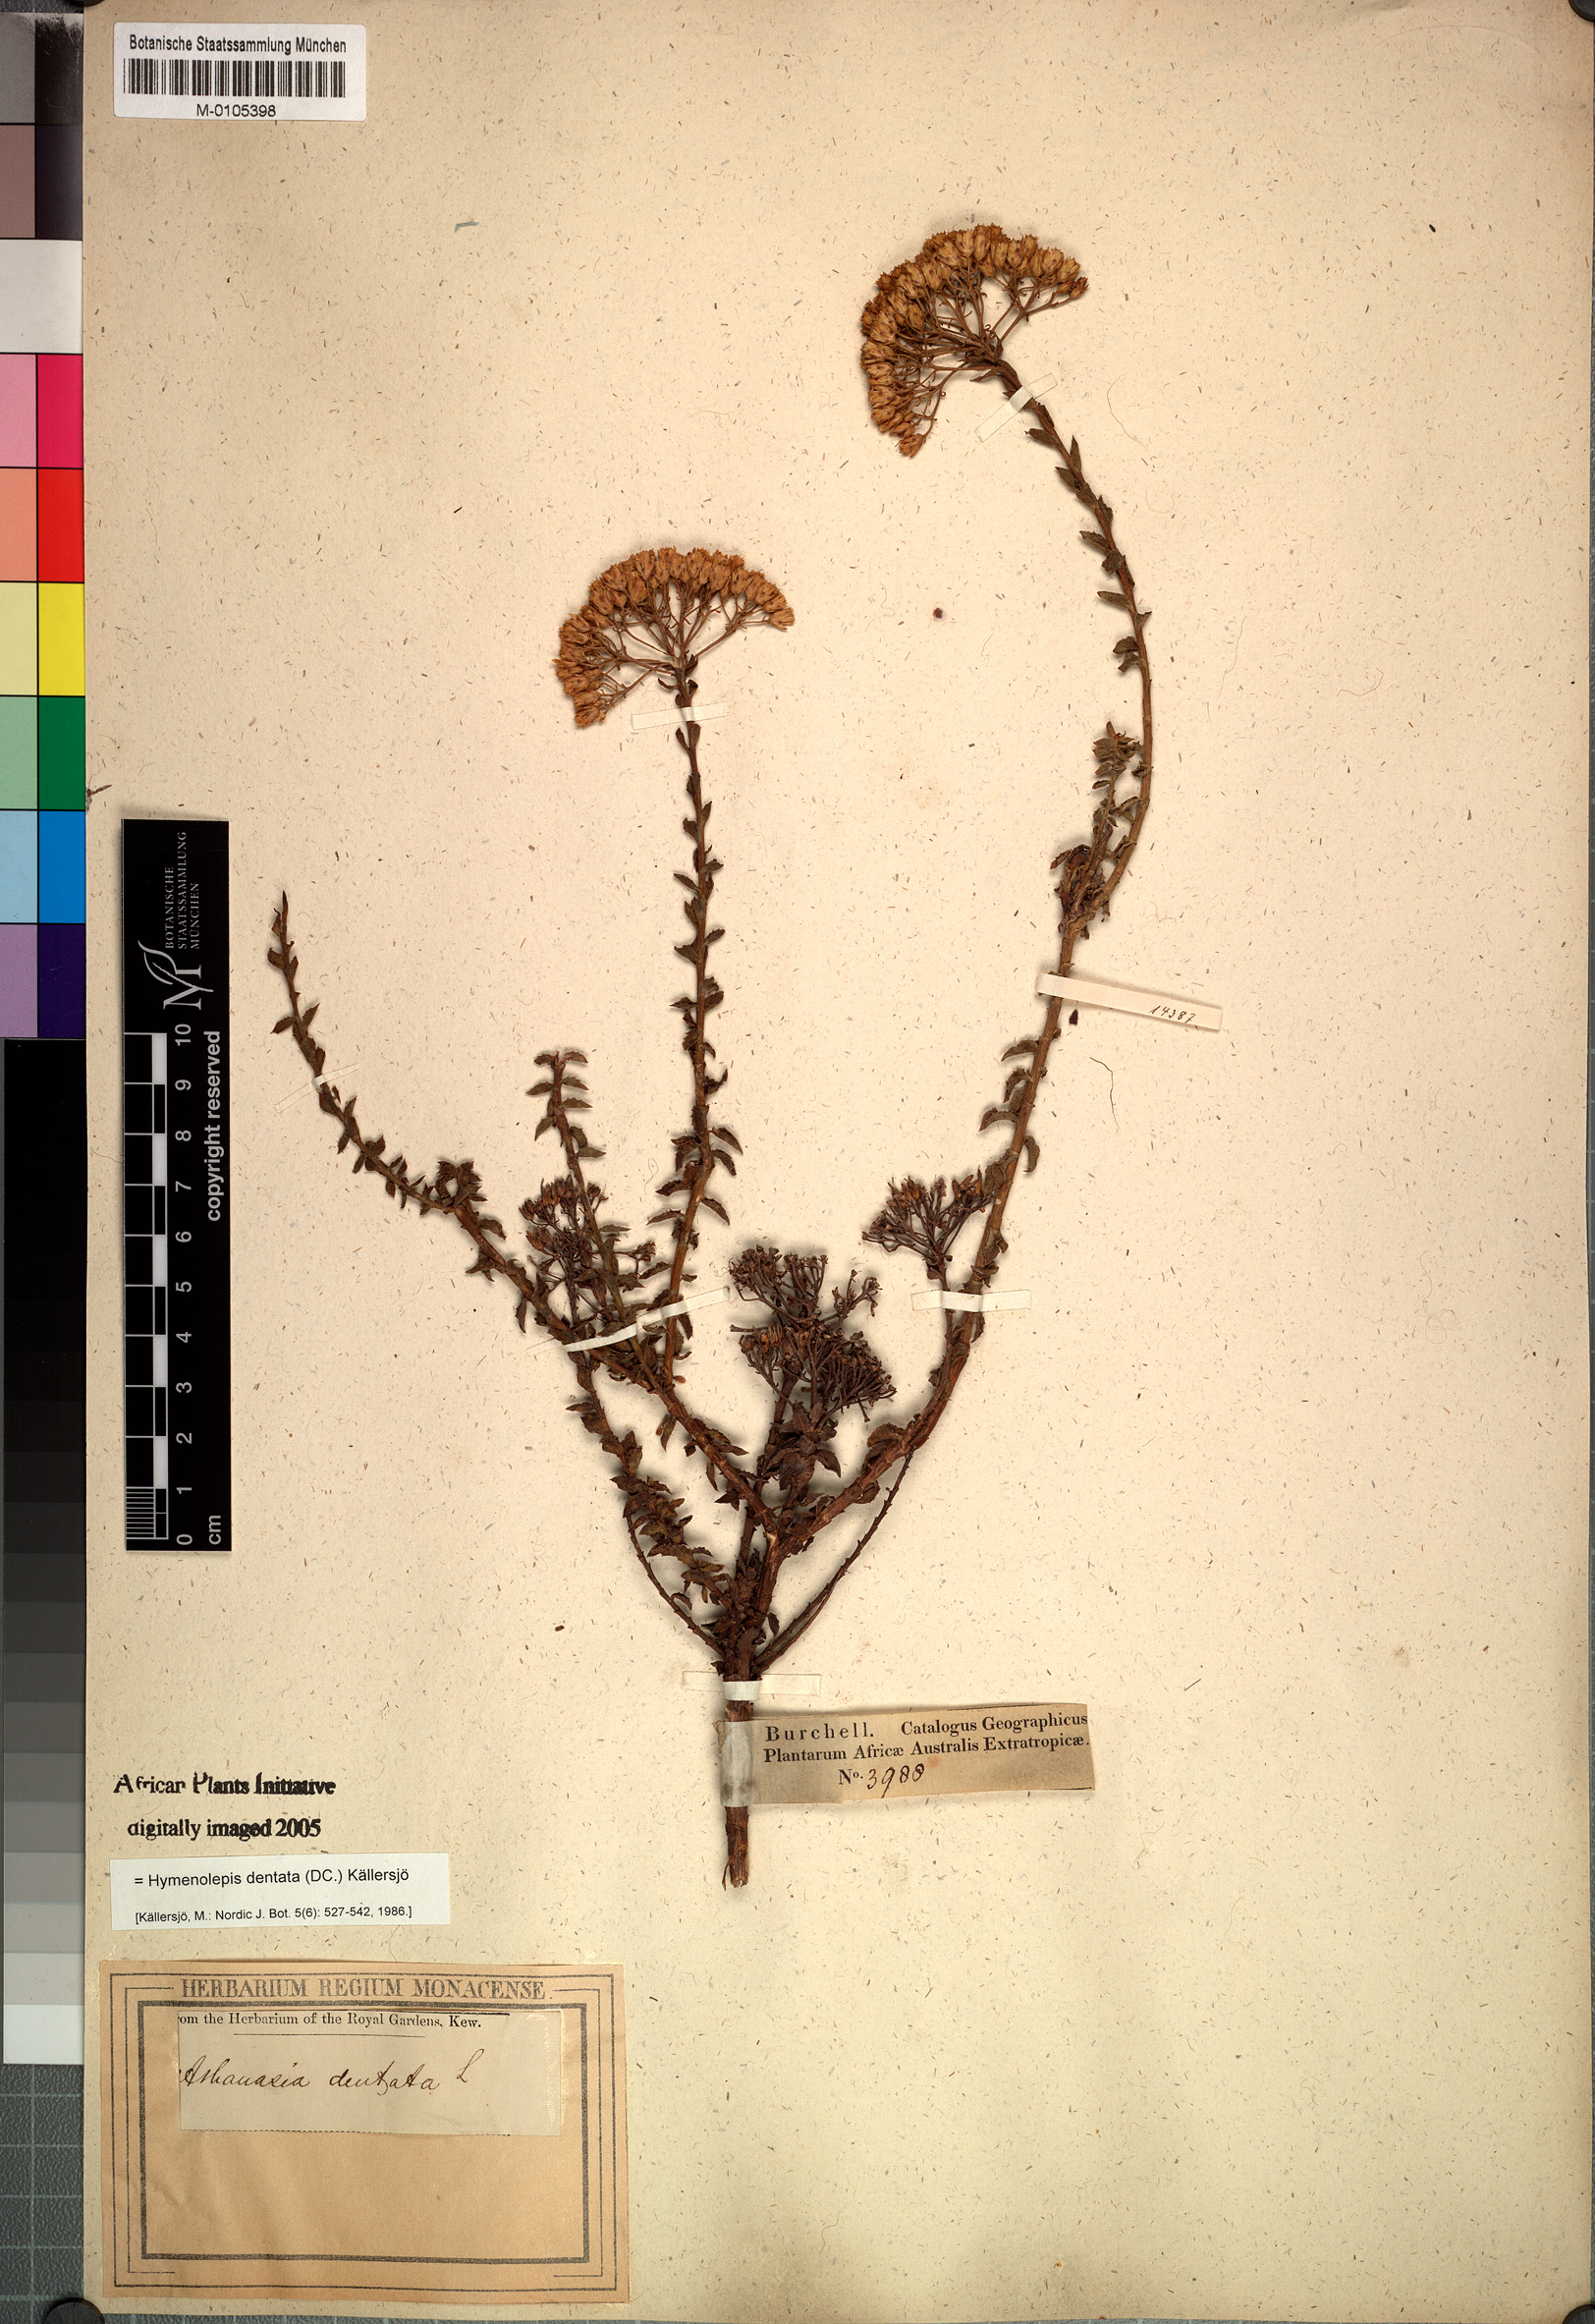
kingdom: Plantae
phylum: Tracheophyta
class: Magnoliopsida
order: Asterales
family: Asteraceae
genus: Hymenolepis
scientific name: Hymenolepis dentata
